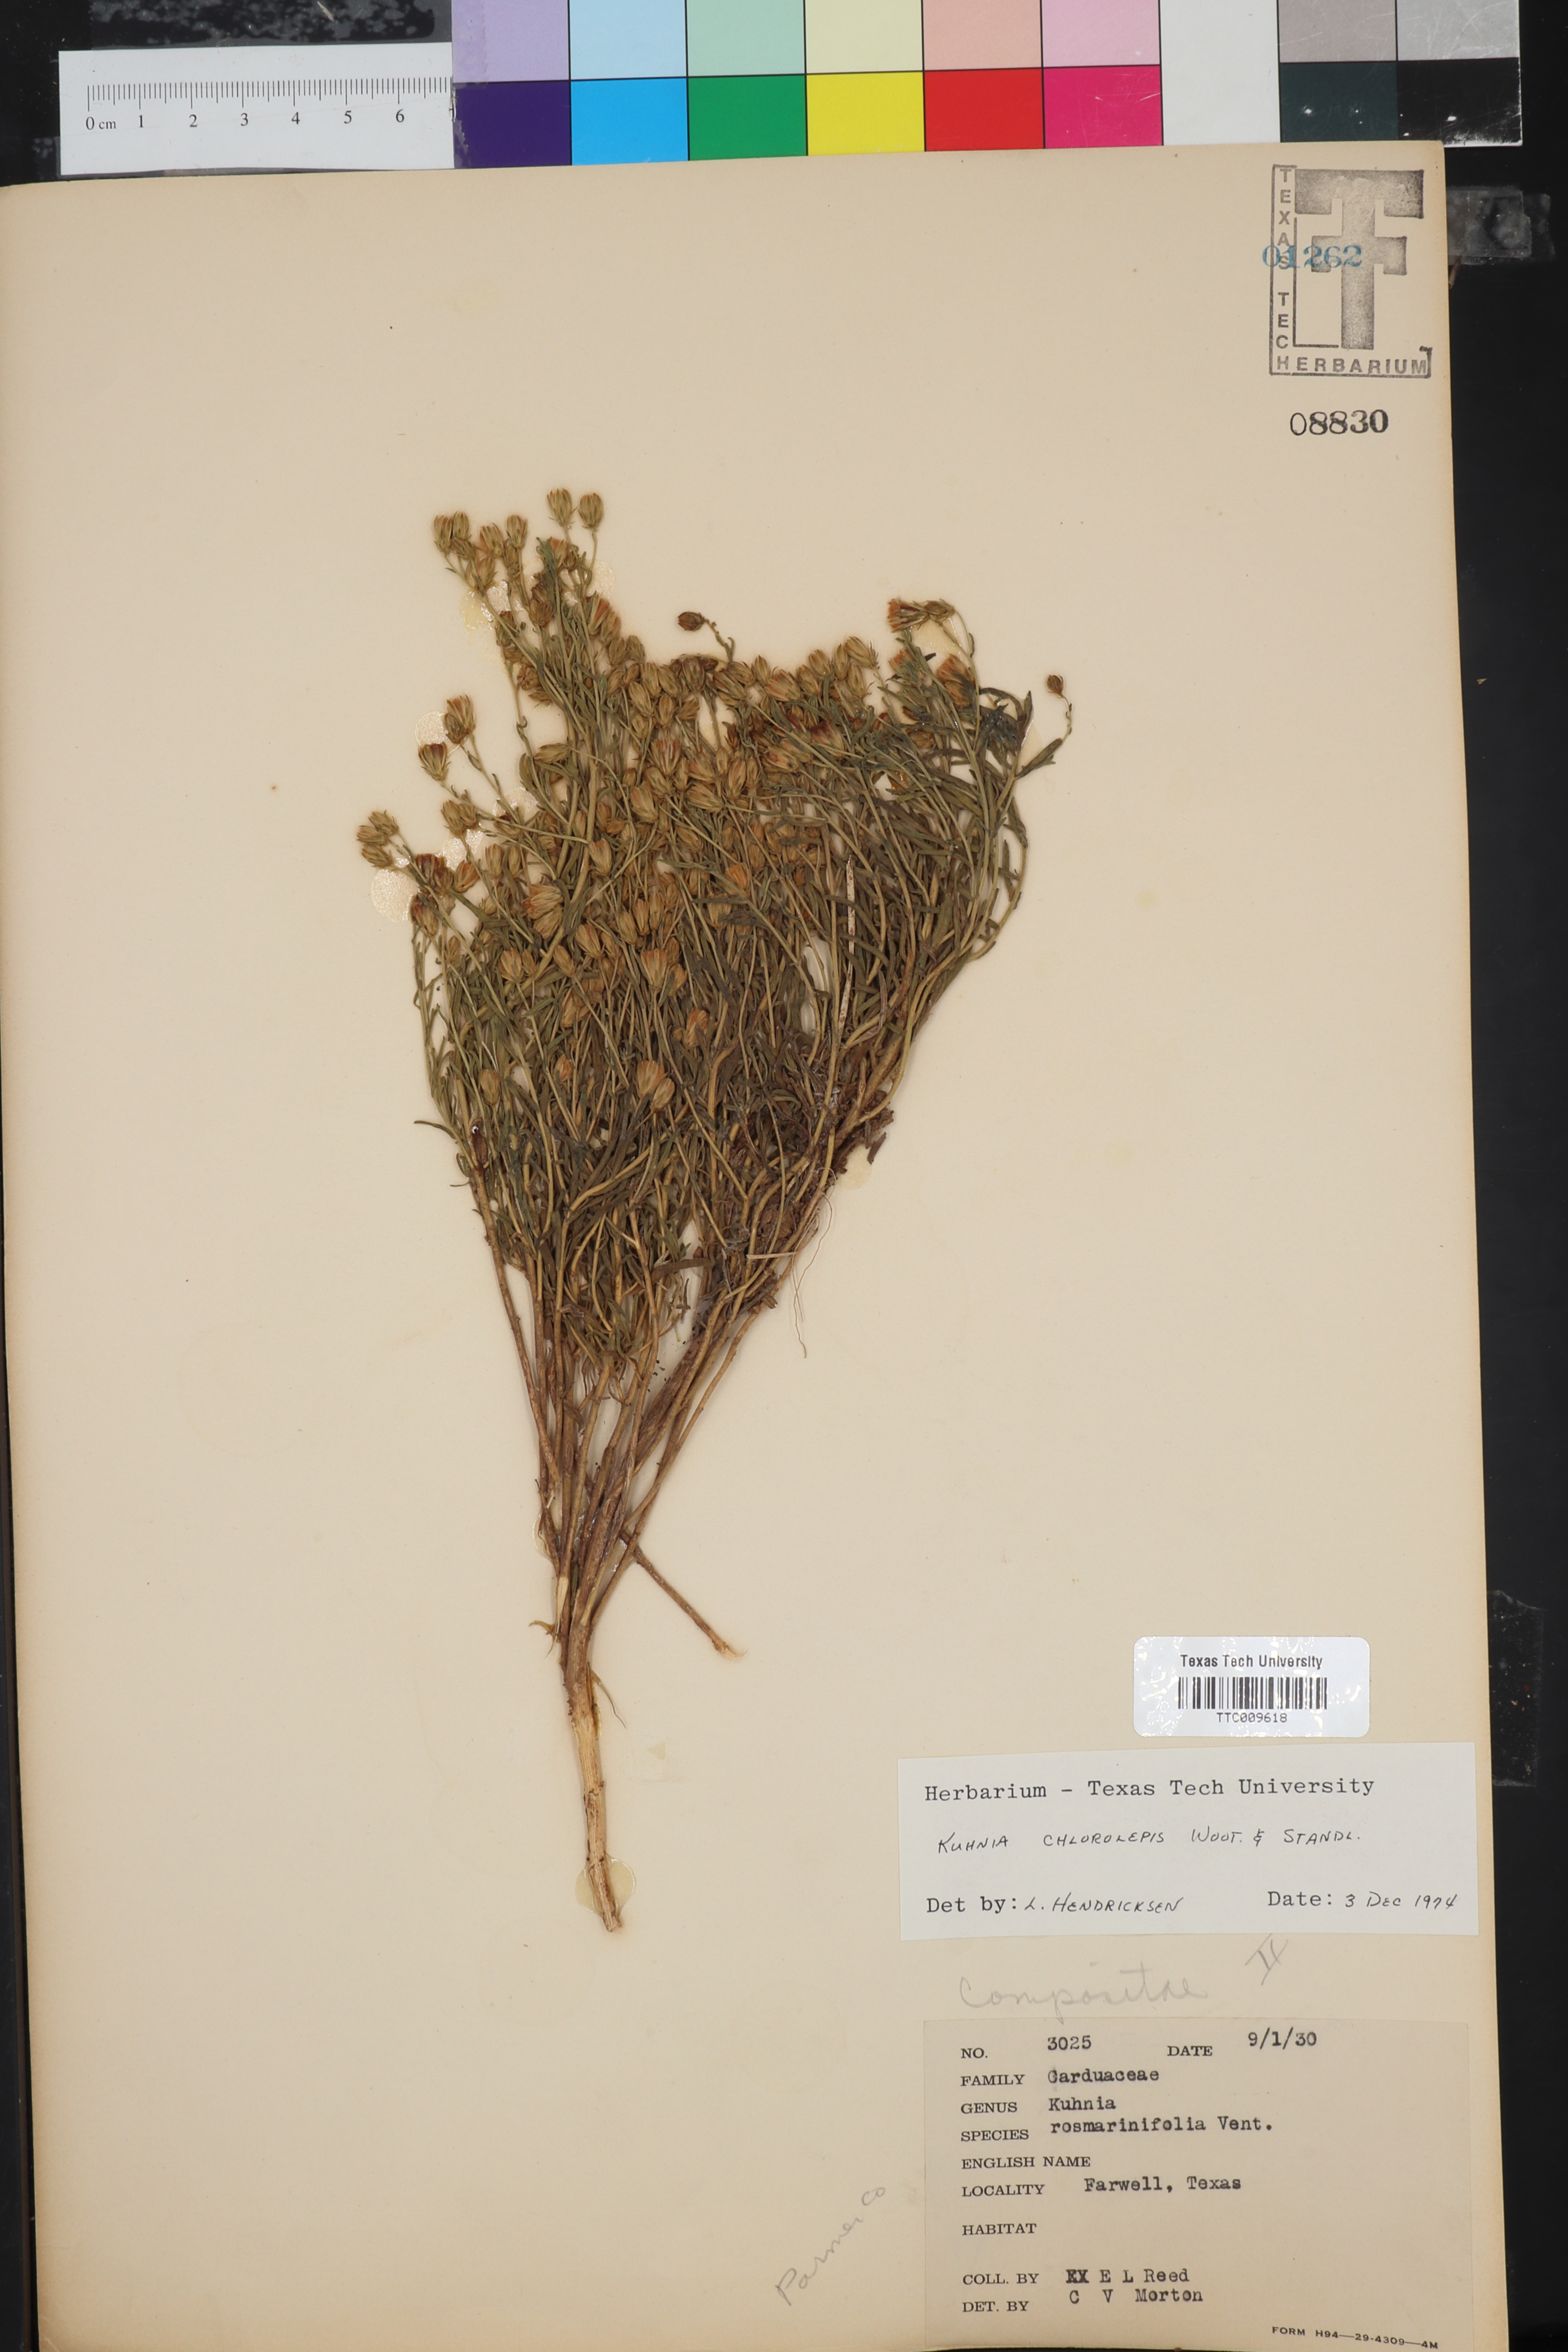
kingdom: Plantae
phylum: Tracheophyta
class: Magnoliopsida
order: Asterales
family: Asteraceae
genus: Brickellia
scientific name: Brickellia leptophylla
